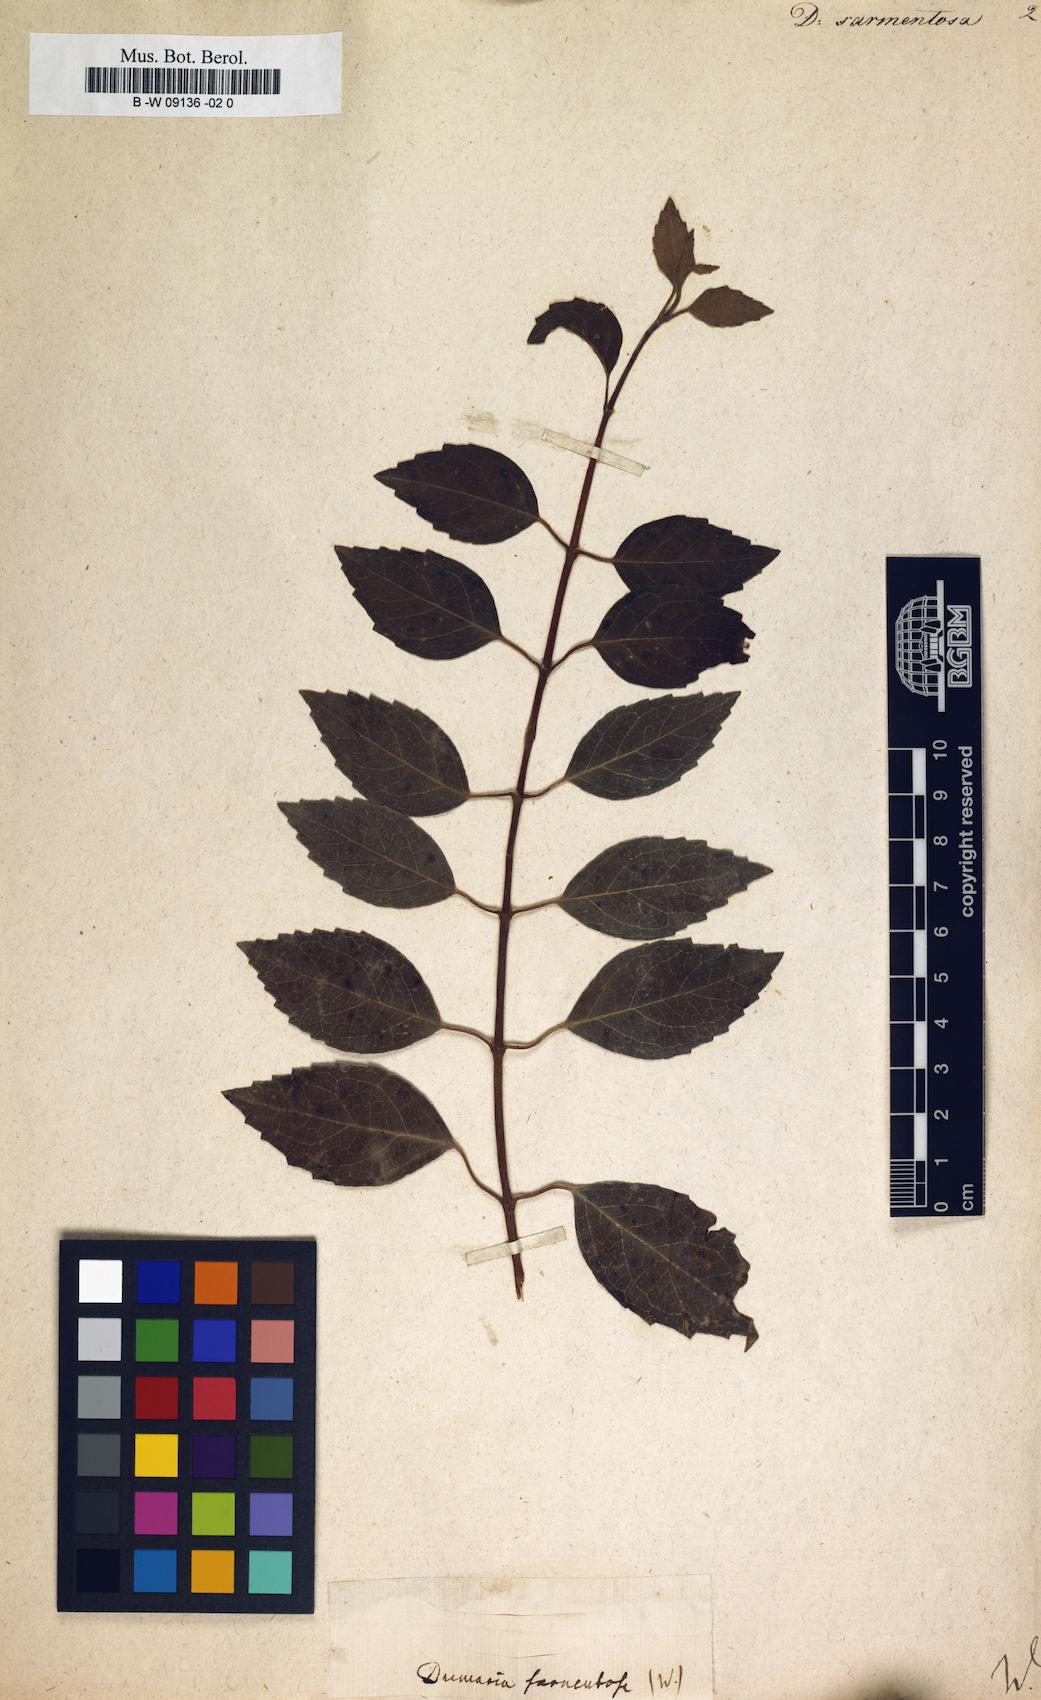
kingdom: Plantae
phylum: Tracheophyta
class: Magnoliopsida
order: Cornales
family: Hydrangeaceae
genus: Hydrangea
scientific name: Hydrangea barbara
